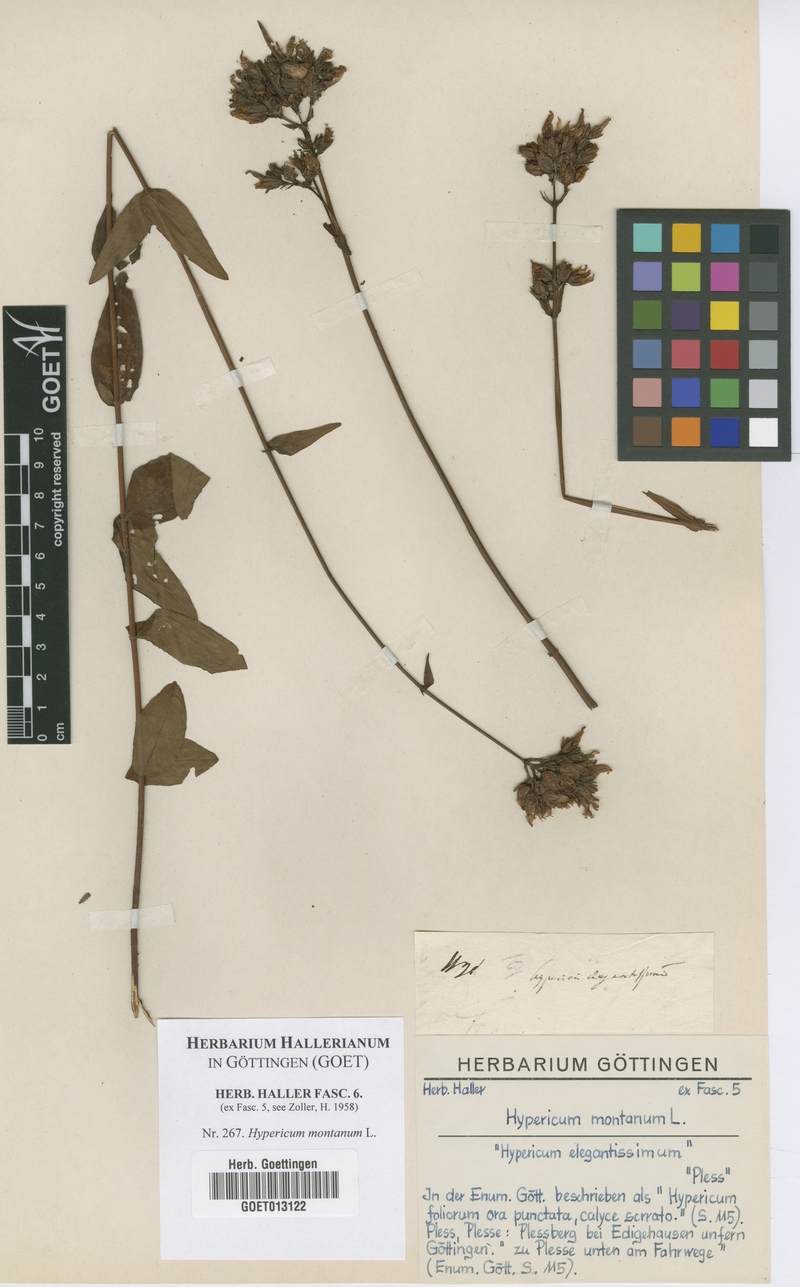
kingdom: Plantae
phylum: Tracheophyta
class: Magnoliopsida
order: Malpighiales
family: Hypericaceae
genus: Hypericum
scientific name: Hypericum montanum
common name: Pale st. john's-wort
